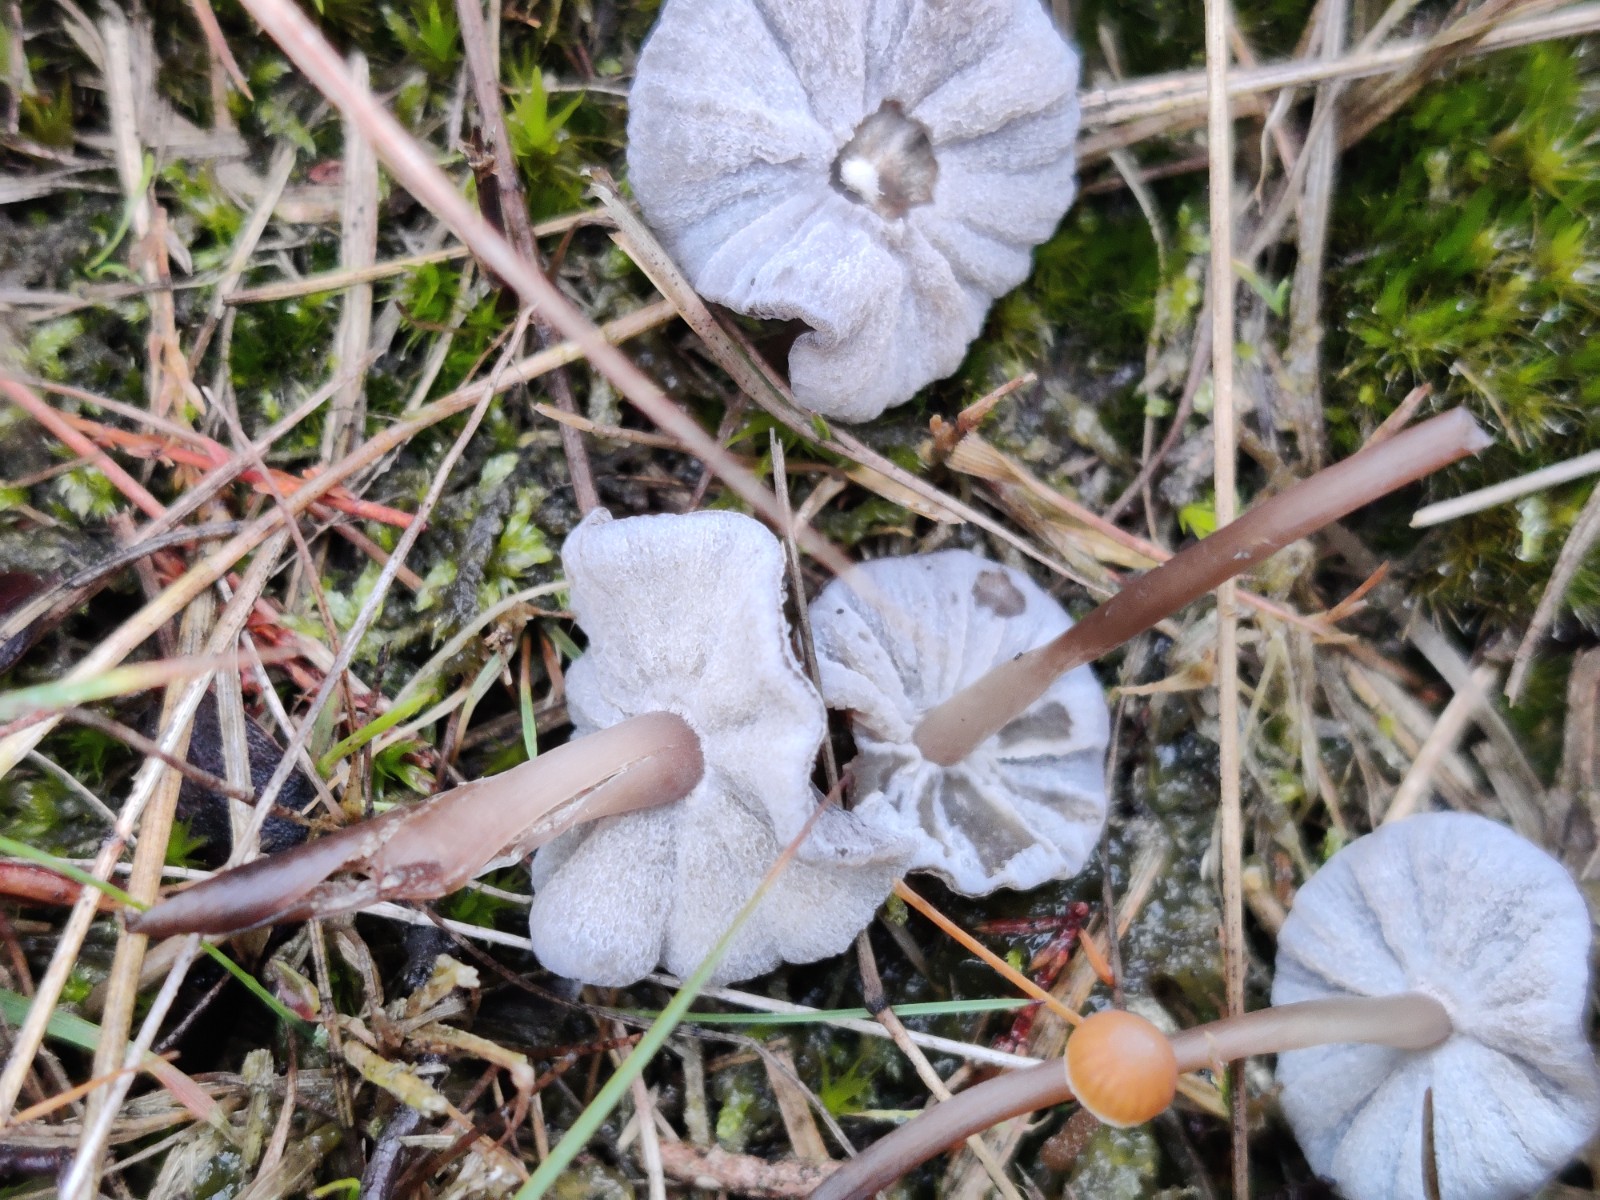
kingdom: Fungi
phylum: Basidiomycota
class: Agaricomycetes
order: Agaricales
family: Mycenaceae
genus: Mycena
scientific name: Mycena
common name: huesvamp
